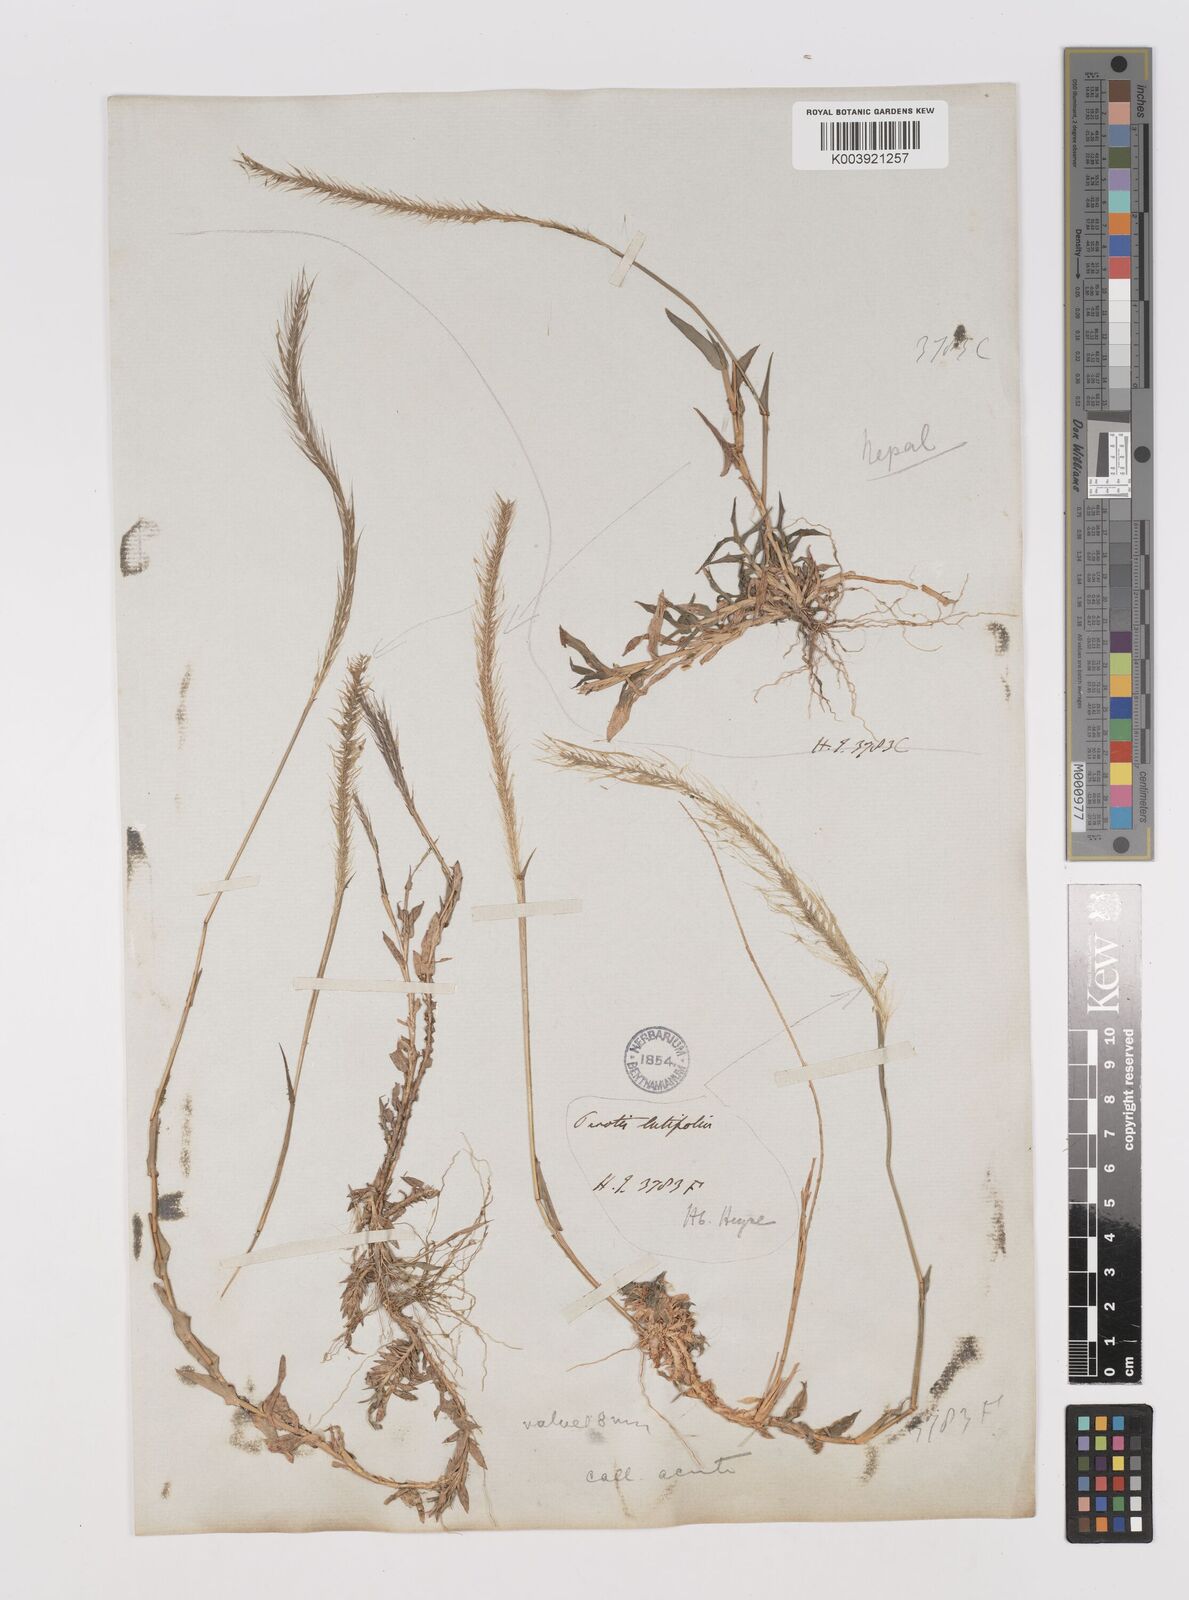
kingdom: Plantae
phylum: Tracheophyta
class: Liliopsida
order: Poales
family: Poaceae
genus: Perotis
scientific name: Perotis hordeiformis
